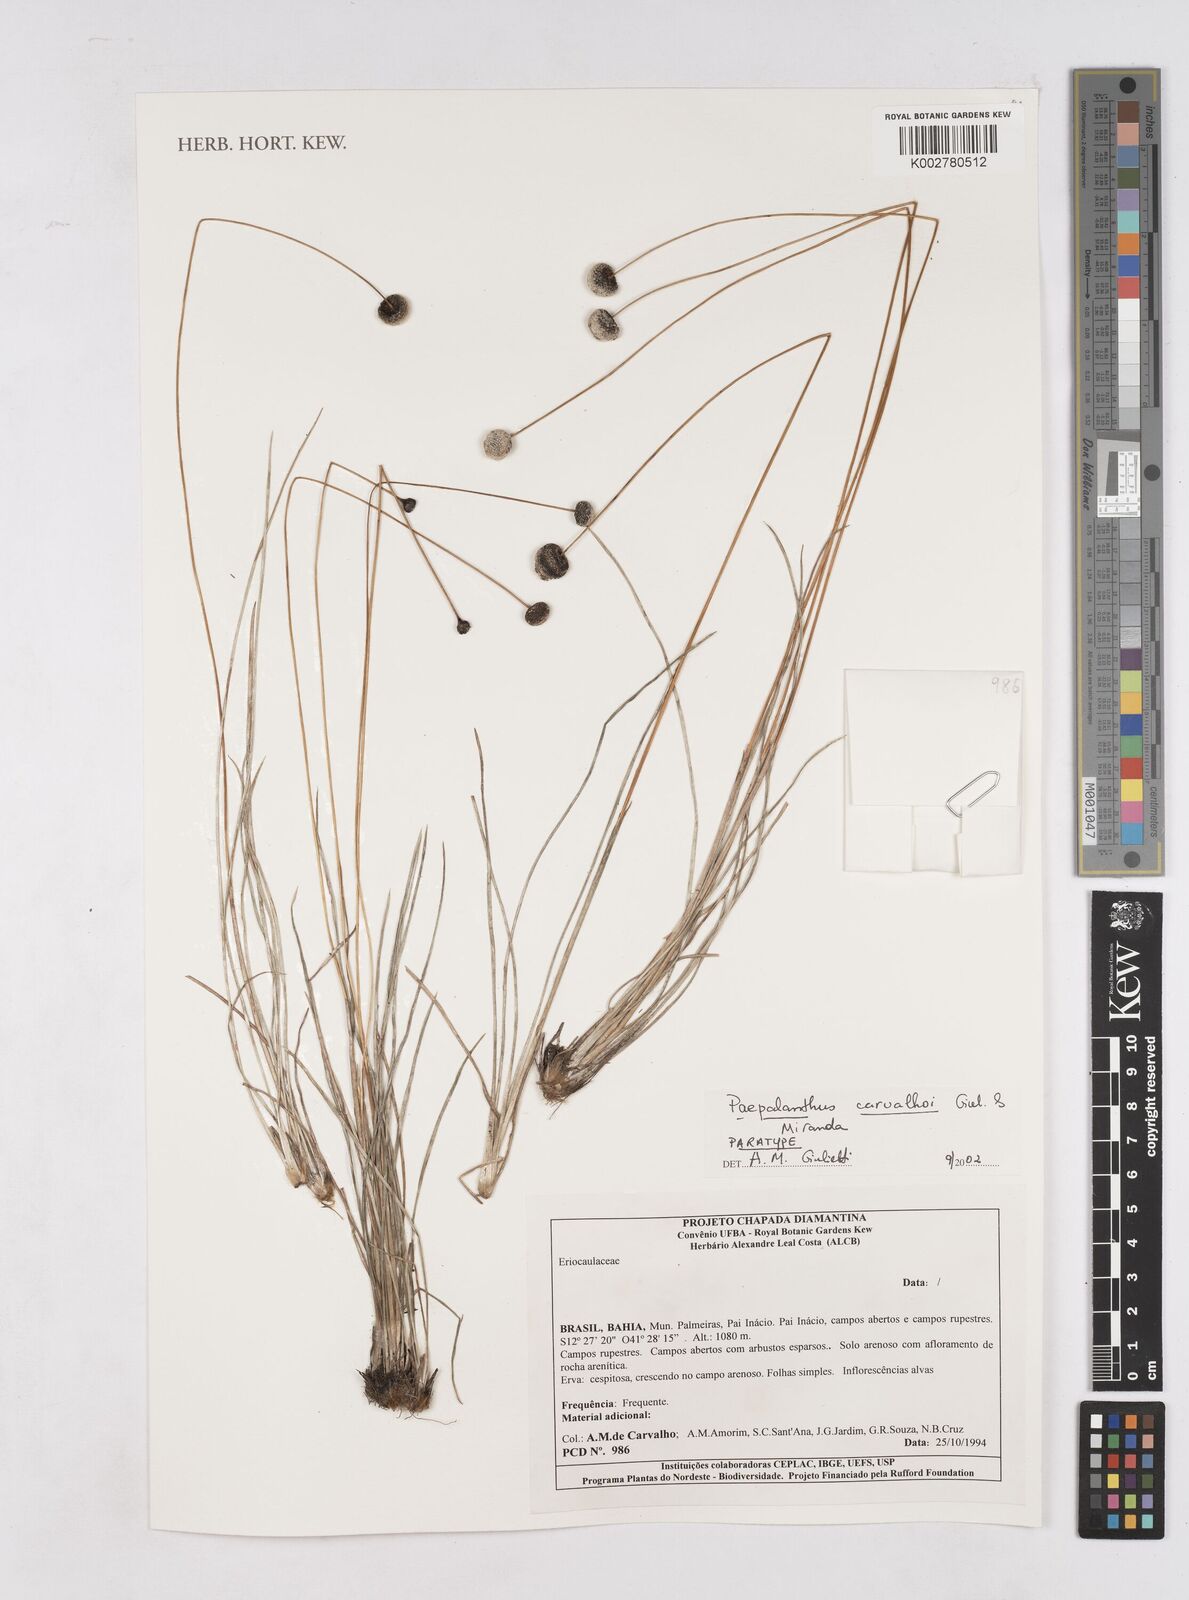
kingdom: Plantae
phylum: Tracheophyta
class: Liliopsida
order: Poales
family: Eriocaulaceae
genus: Paepalanthus
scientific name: Paepalanthus carvalhoi
